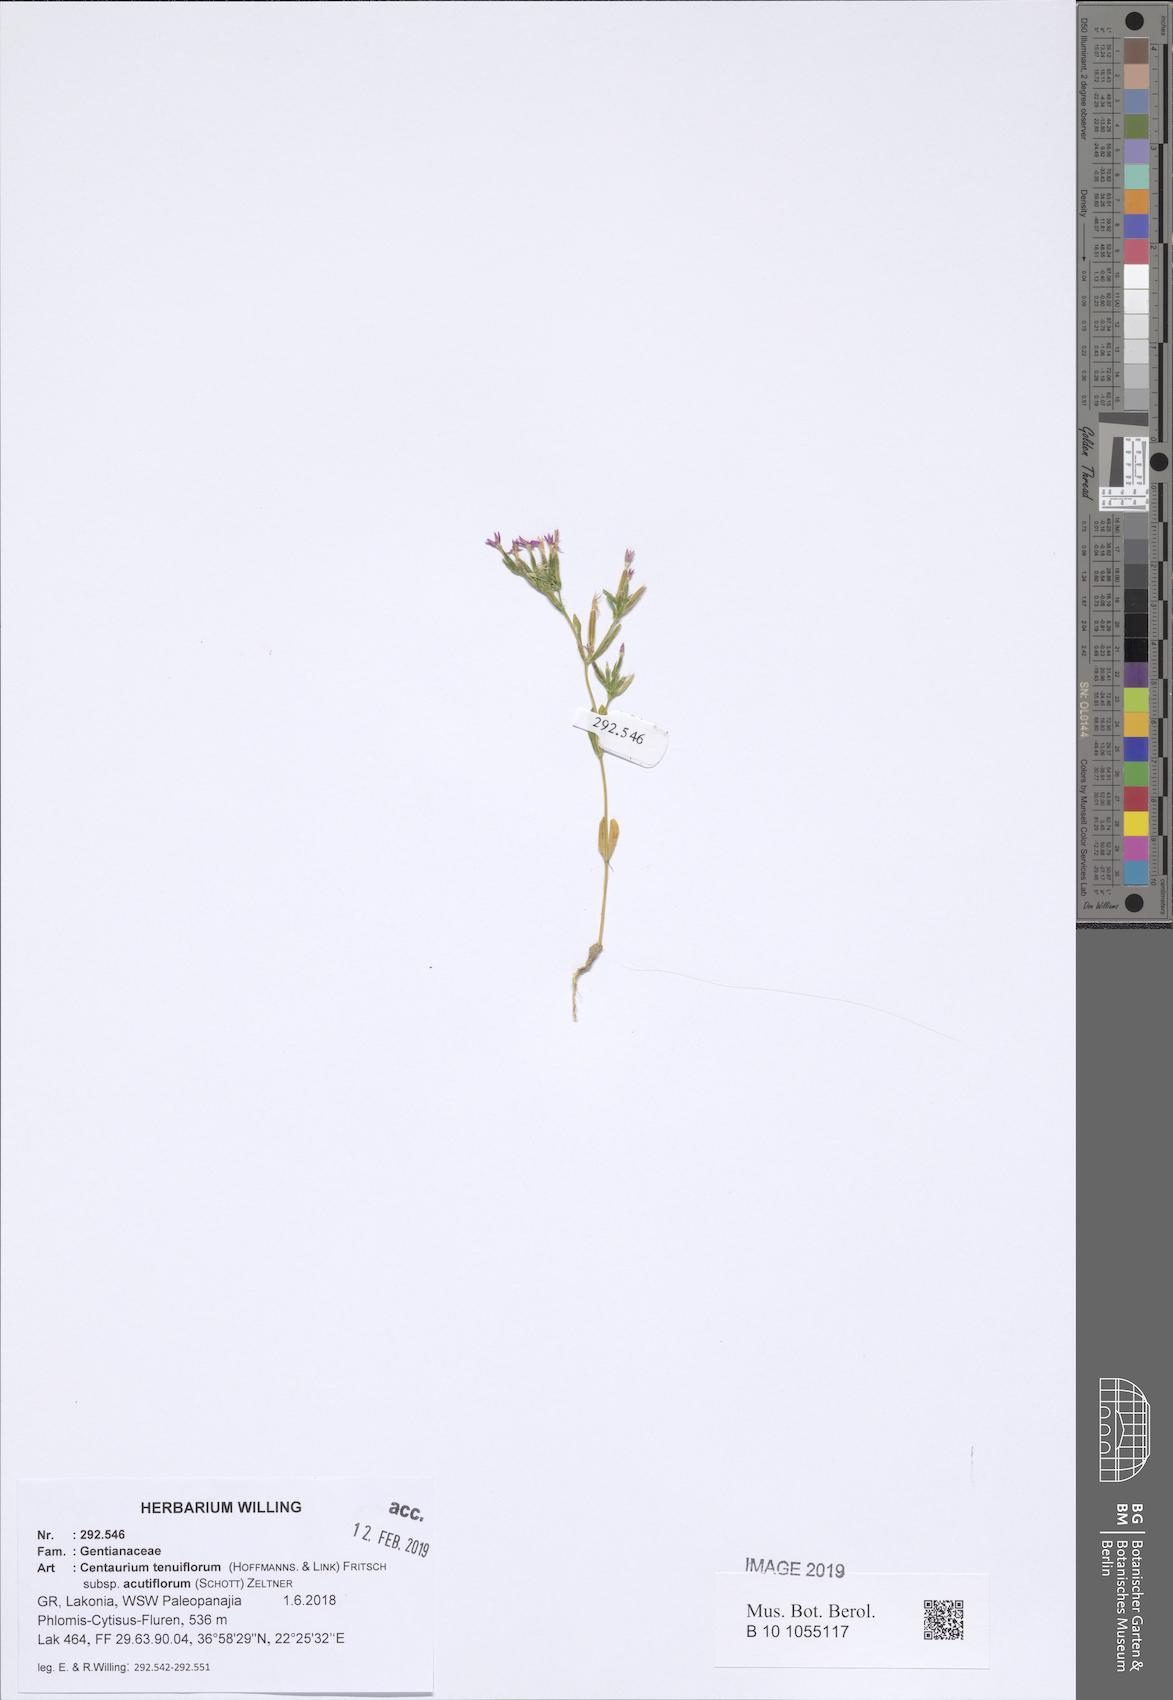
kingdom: Plantae
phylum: Tracheophyta
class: Magnoliopsida
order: Gentianales
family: Gentianaceae
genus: Centaurium
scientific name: Centaurium tenuiflorum
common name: Slender centaury
